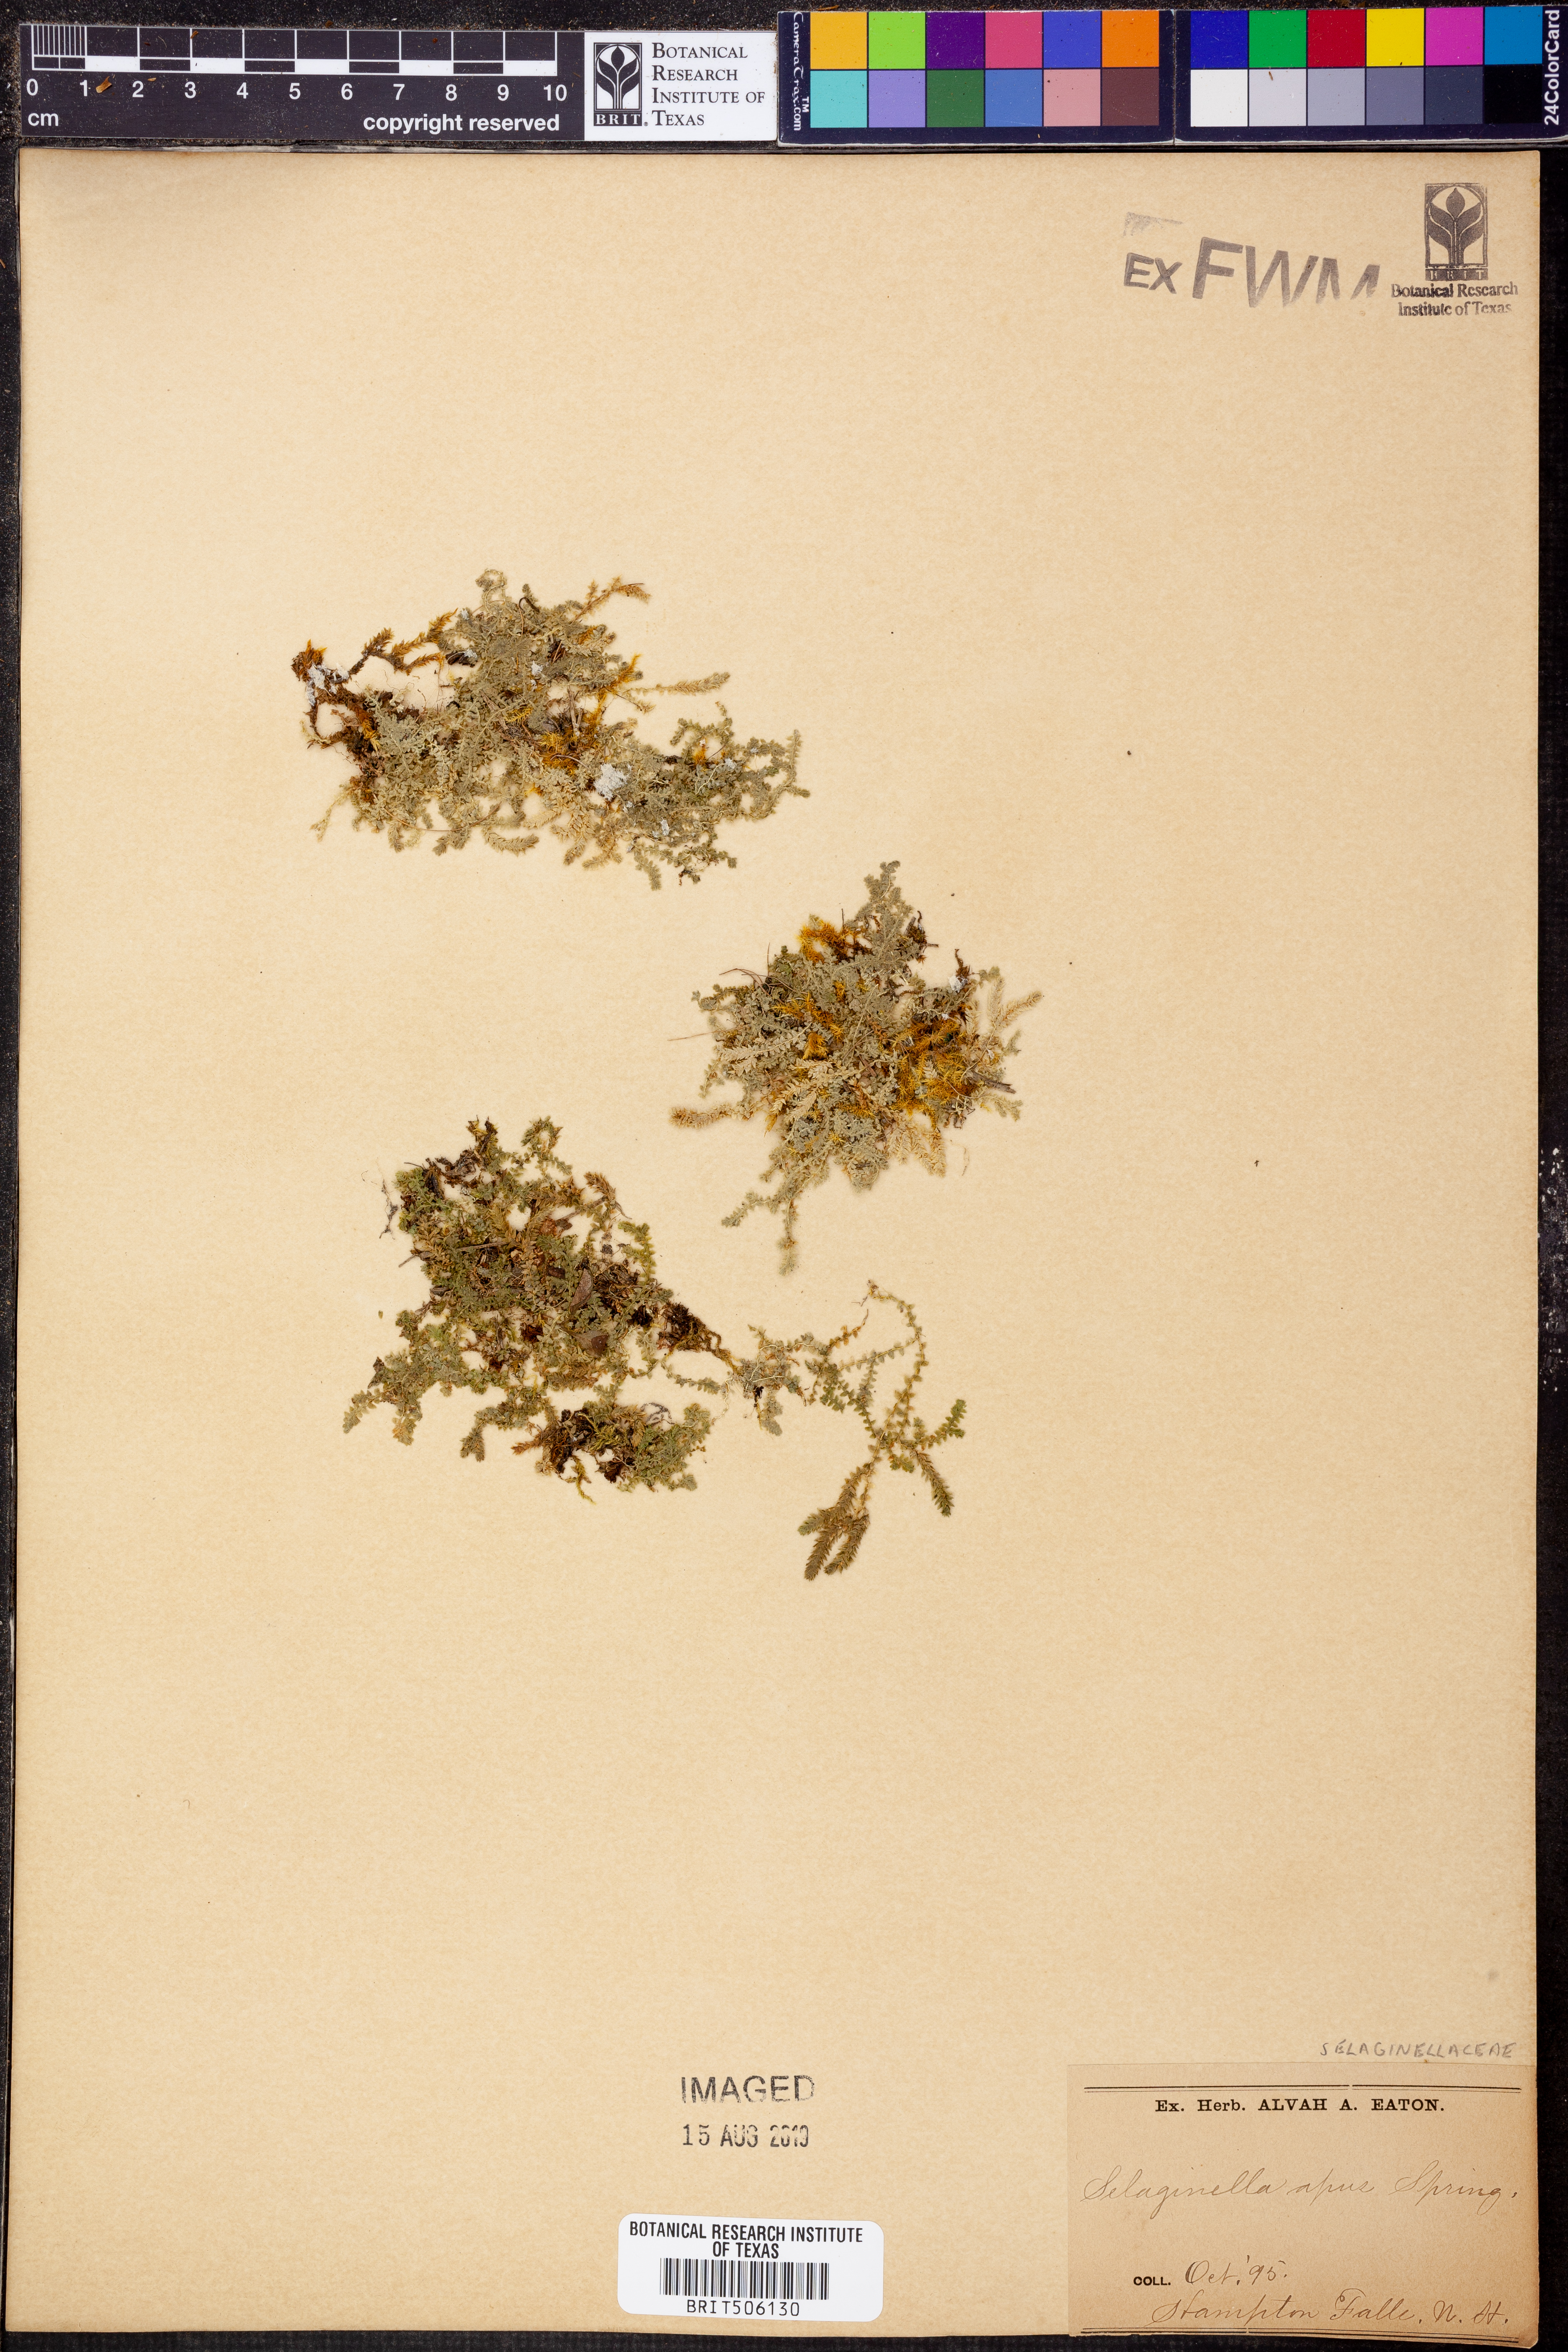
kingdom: Plantae
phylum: Tracheophyta
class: Lycopodiopsida
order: Selaginellales
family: Selaginellaceae
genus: Selaginella
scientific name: Selaginella apoda
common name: Creeping spikemoss
